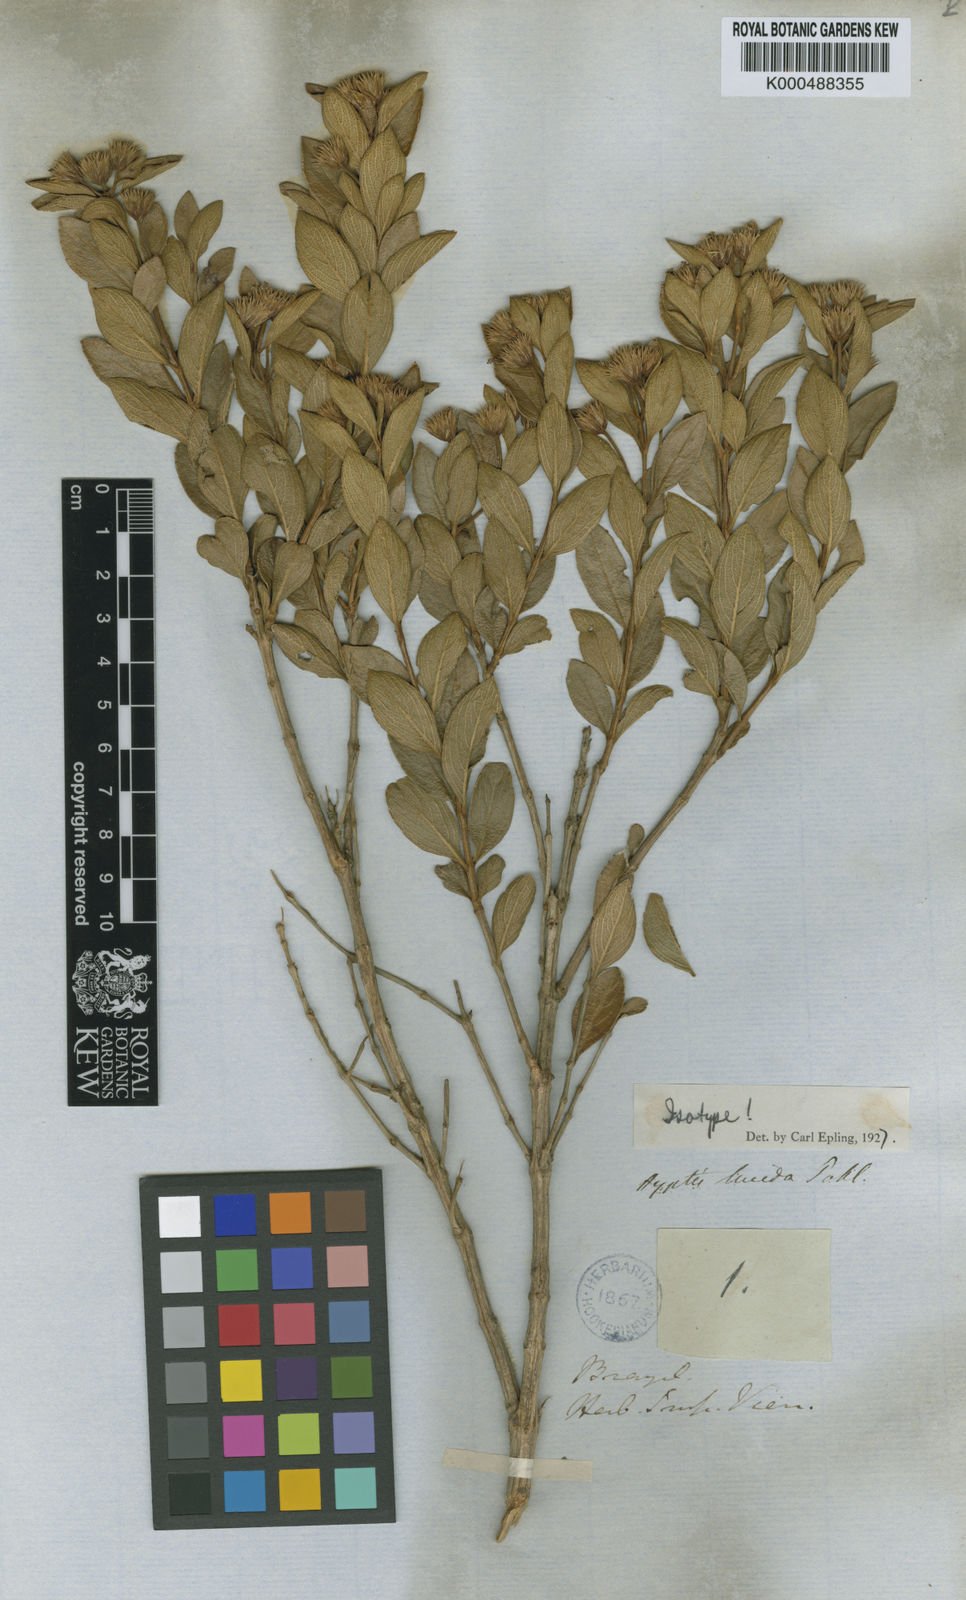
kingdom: Plantae
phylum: Tracheophyta
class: Magnoliopsida
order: Lamiales
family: Lamiaceae
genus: Hyptis
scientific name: Hyptis lucida
